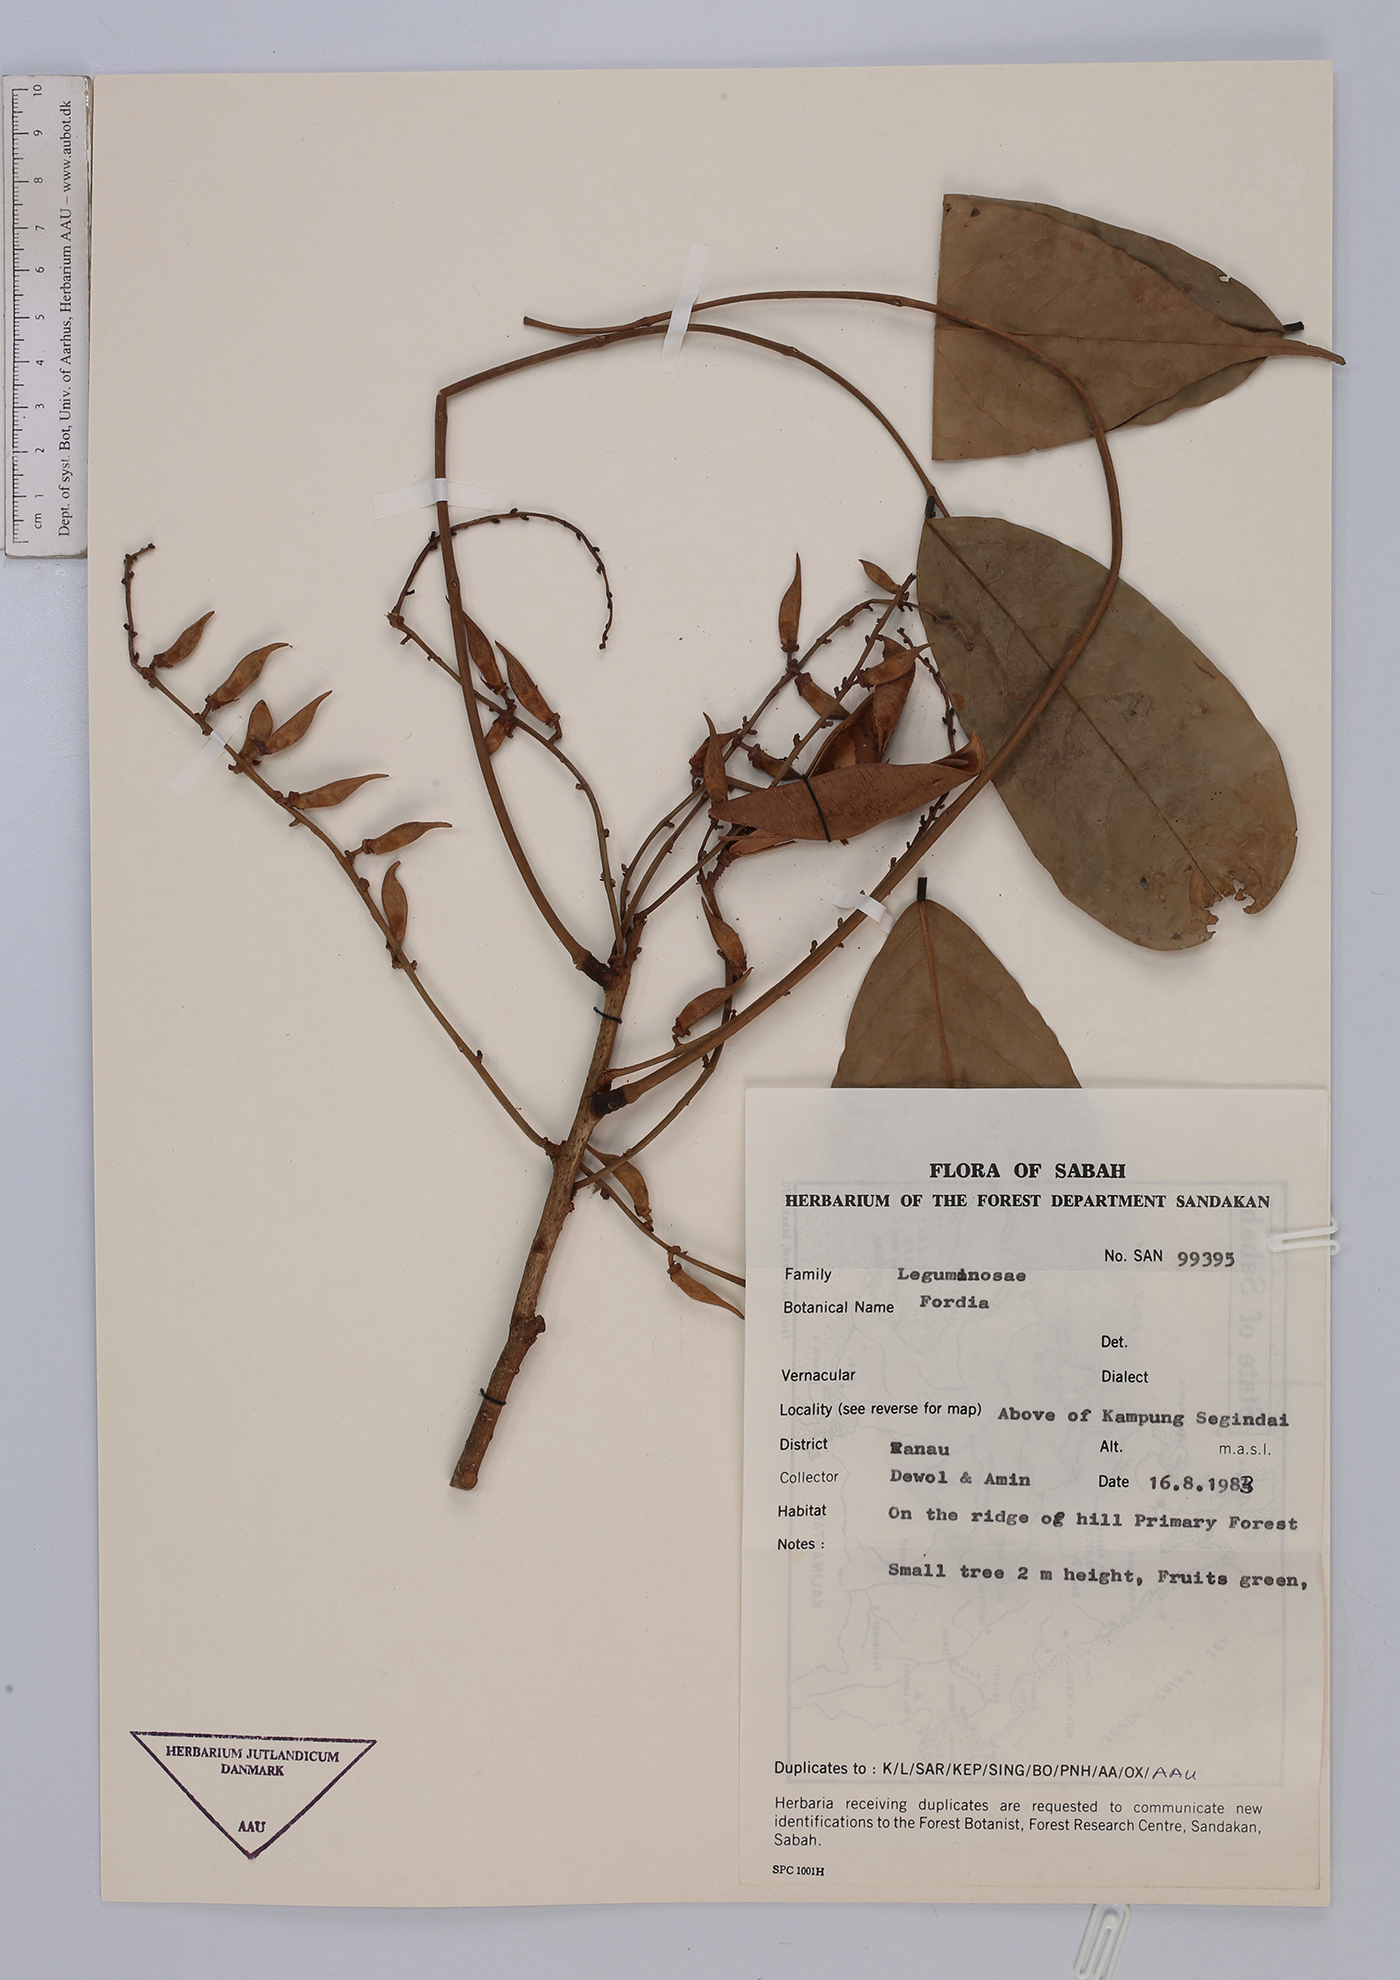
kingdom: Plantae
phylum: Tracheophyta
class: Magnoliopsida
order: Fabales
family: Fabaceae
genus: Fordia
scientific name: Fordia
